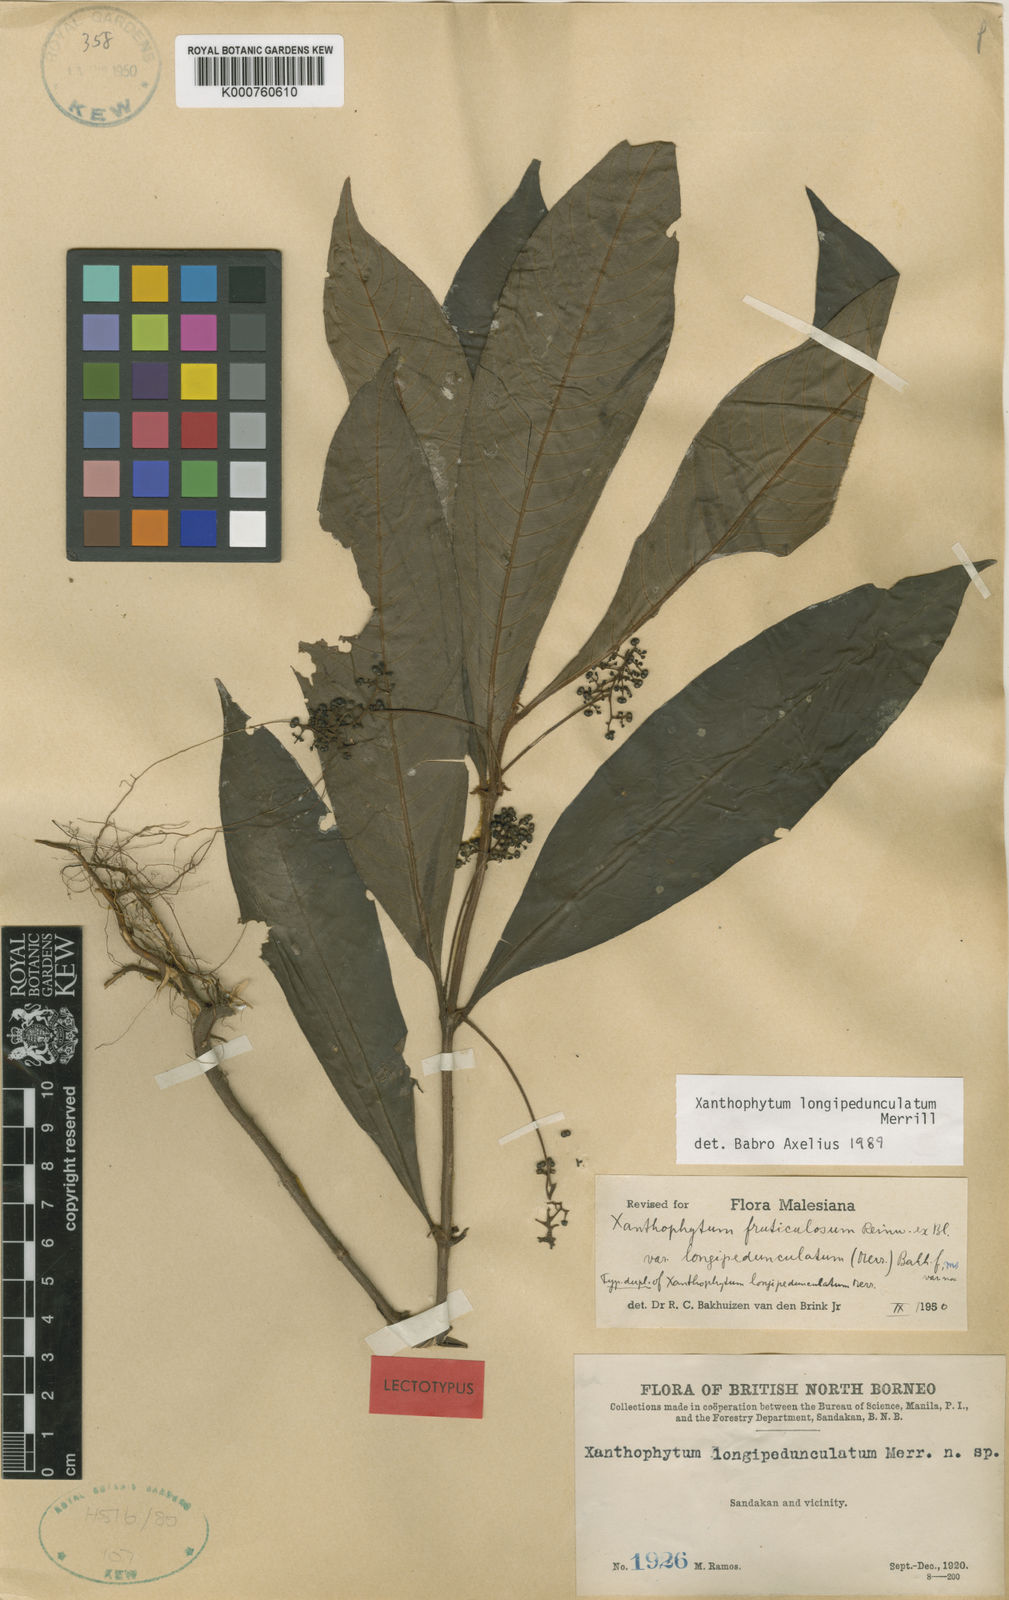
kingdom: Plantae
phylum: Tracheophyta
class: Magnoliopsida
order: Gentianales
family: Rubiaceae
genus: Xanthophytum
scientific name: Xanthophytum longipedunculatum
